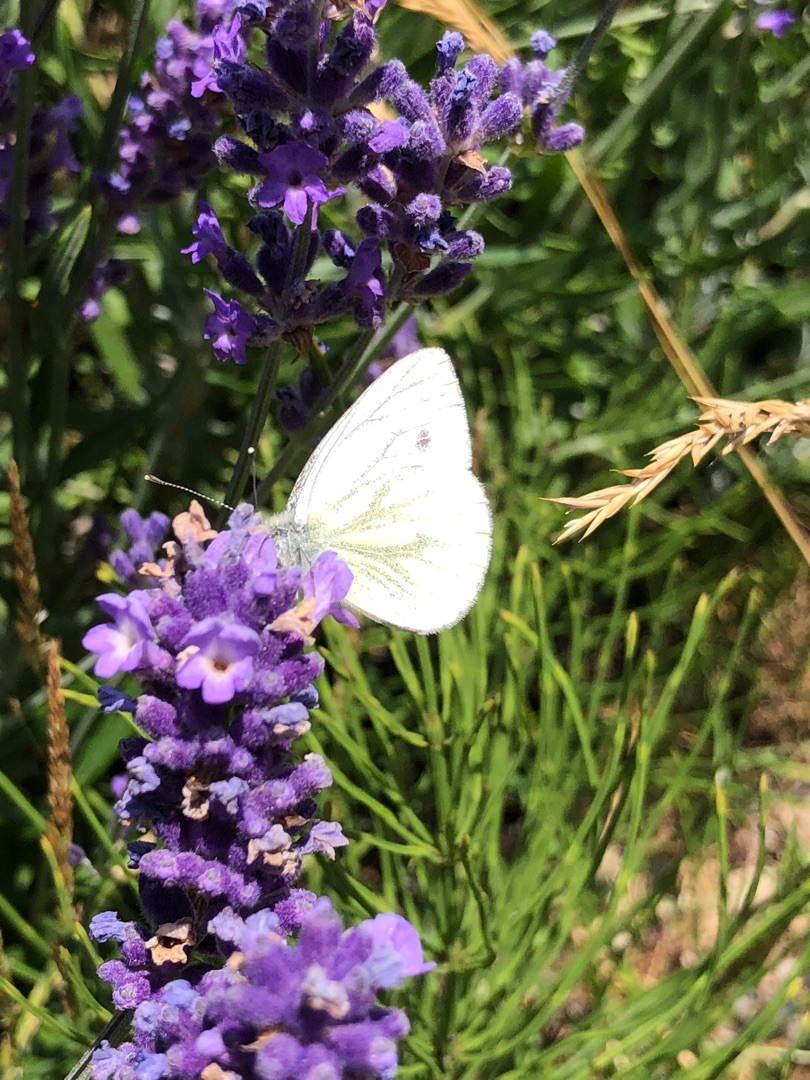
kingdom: Animalia
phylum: Arthropoda
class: Insecta
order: Lepidoptera
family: Pieridae
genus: Pieris
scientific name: Pieris napi
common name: Grønåret kålsommerfugl
